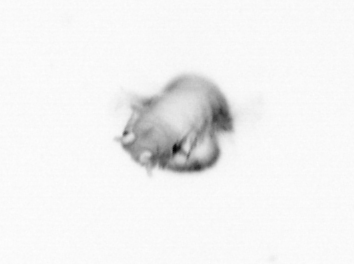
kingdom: Animalia
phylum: Annelida
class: Polychaeta
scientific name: Polychaeta
